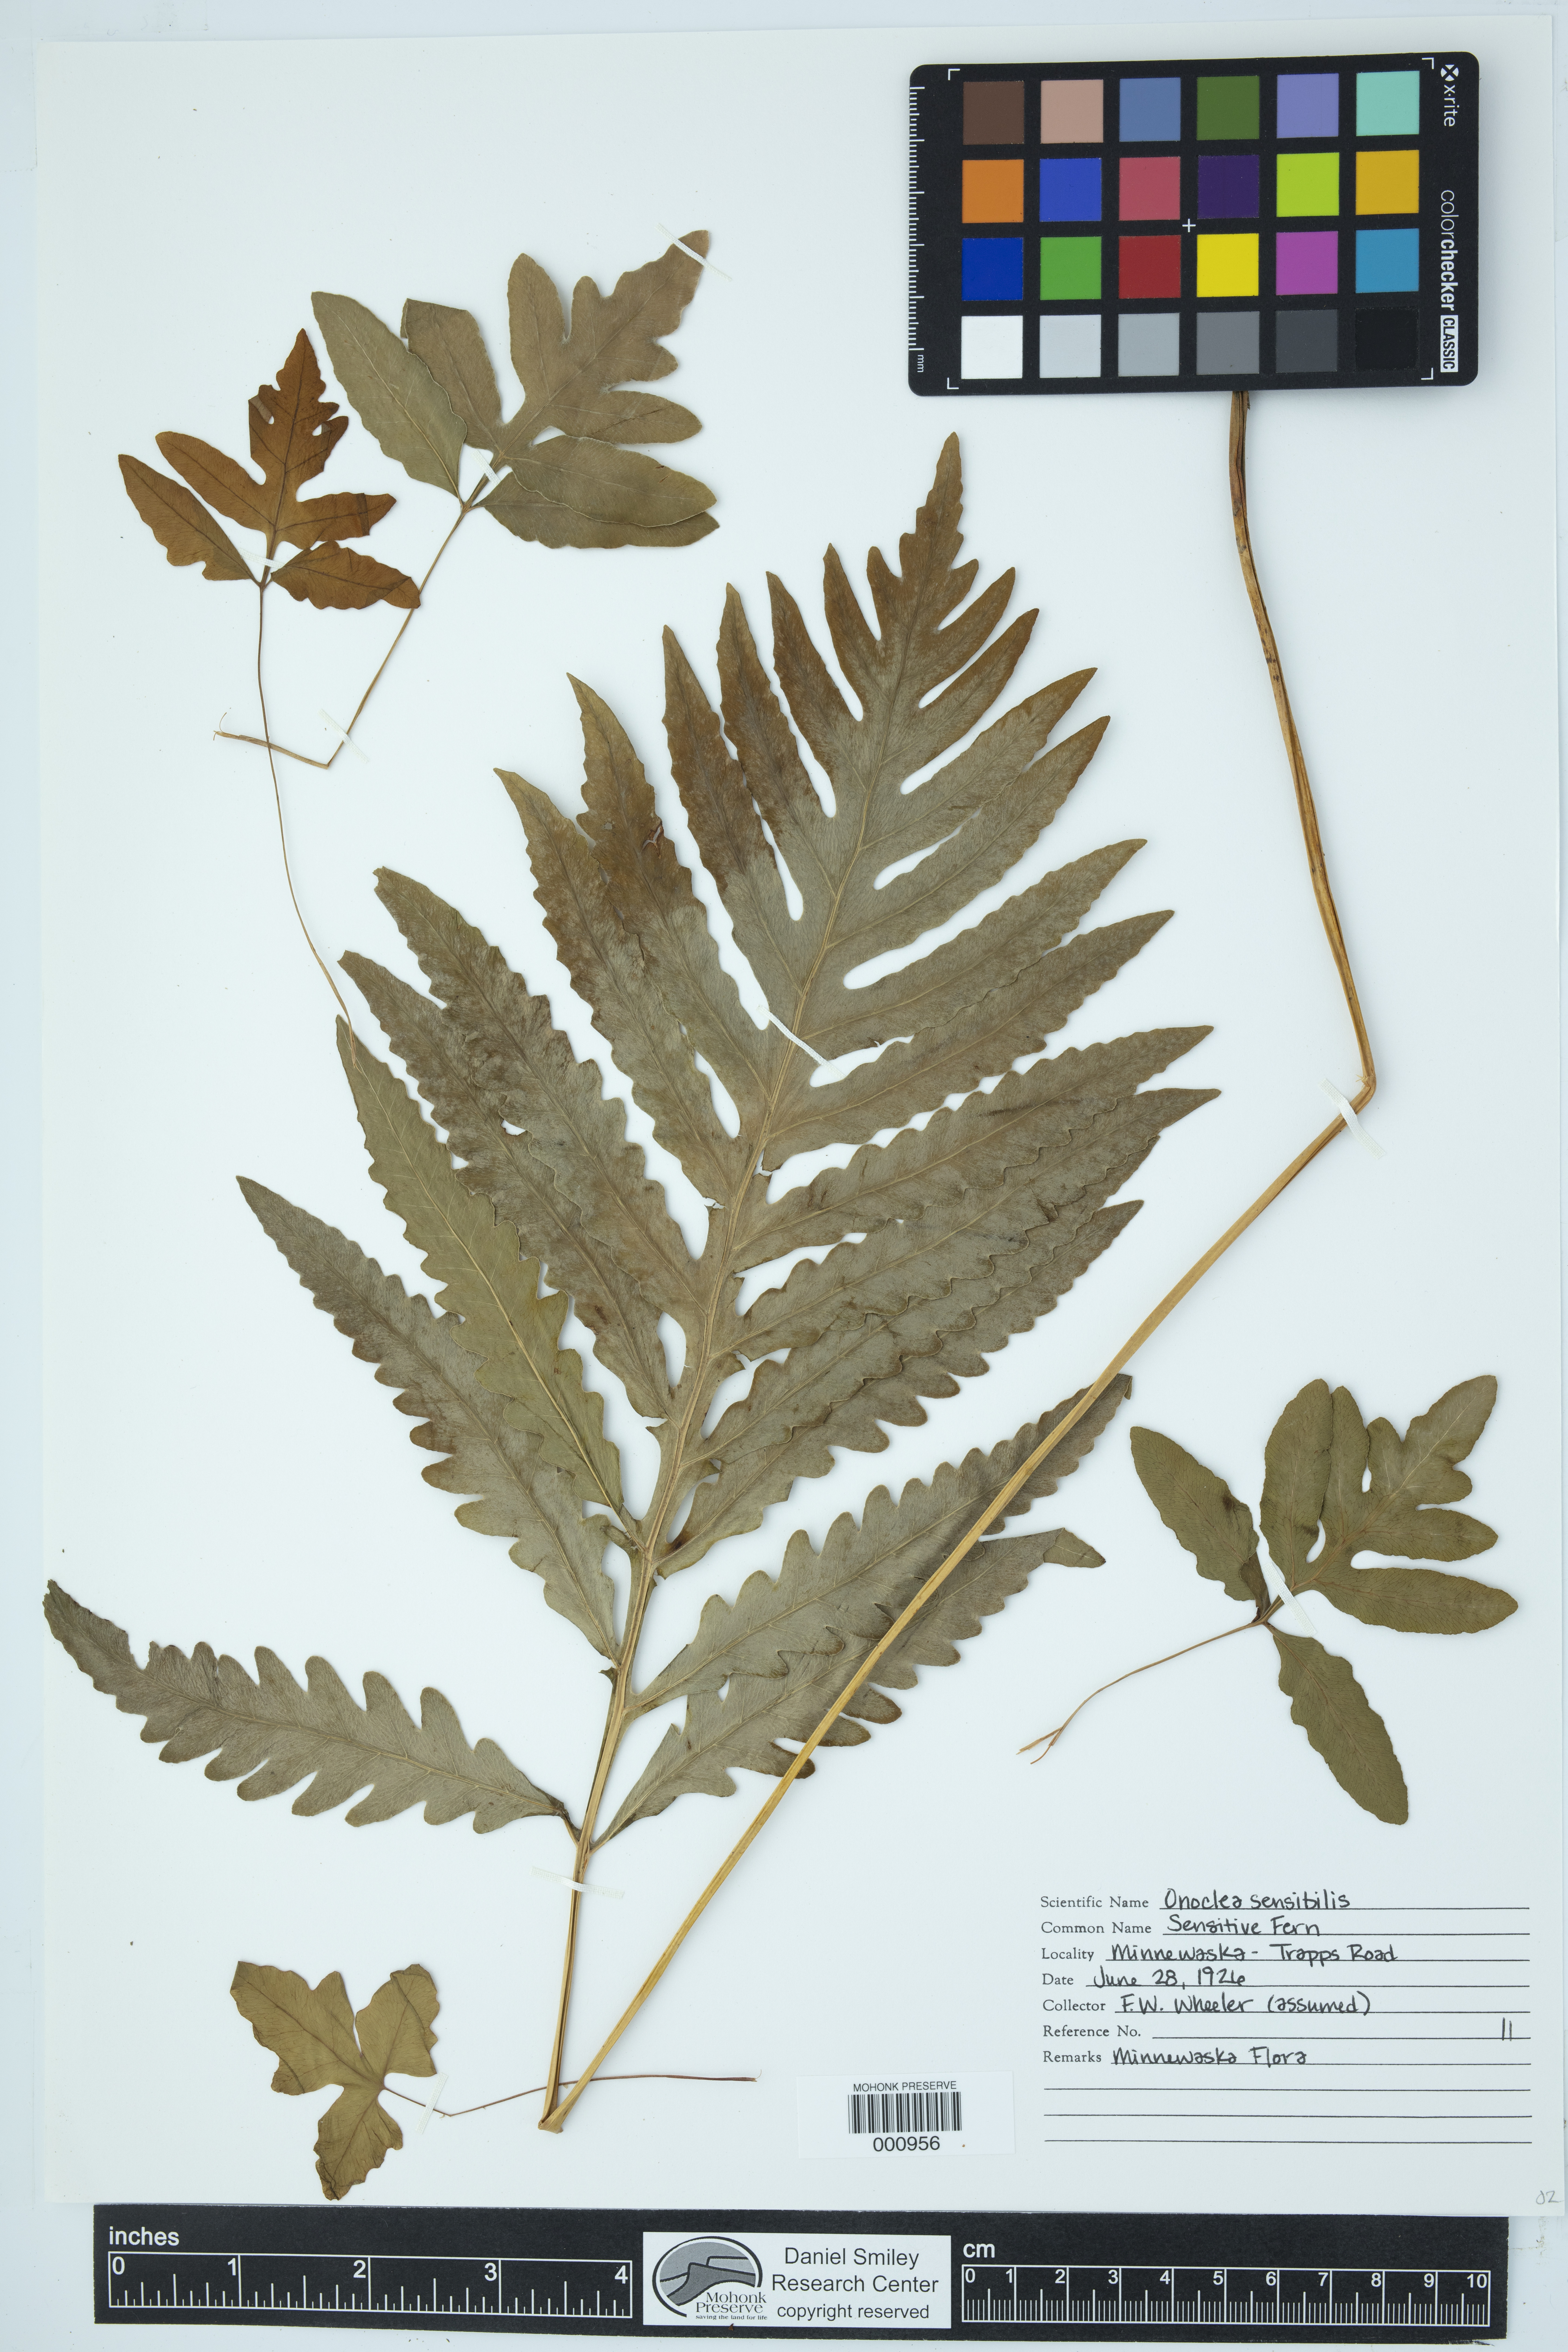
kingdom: Plantae
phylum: Tracheophyta
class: Polypodiopsida
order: Polypodiales
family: Onocleaceae
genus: Onoclea
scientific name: Onoclea sensibilis
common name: Sensitive fern
